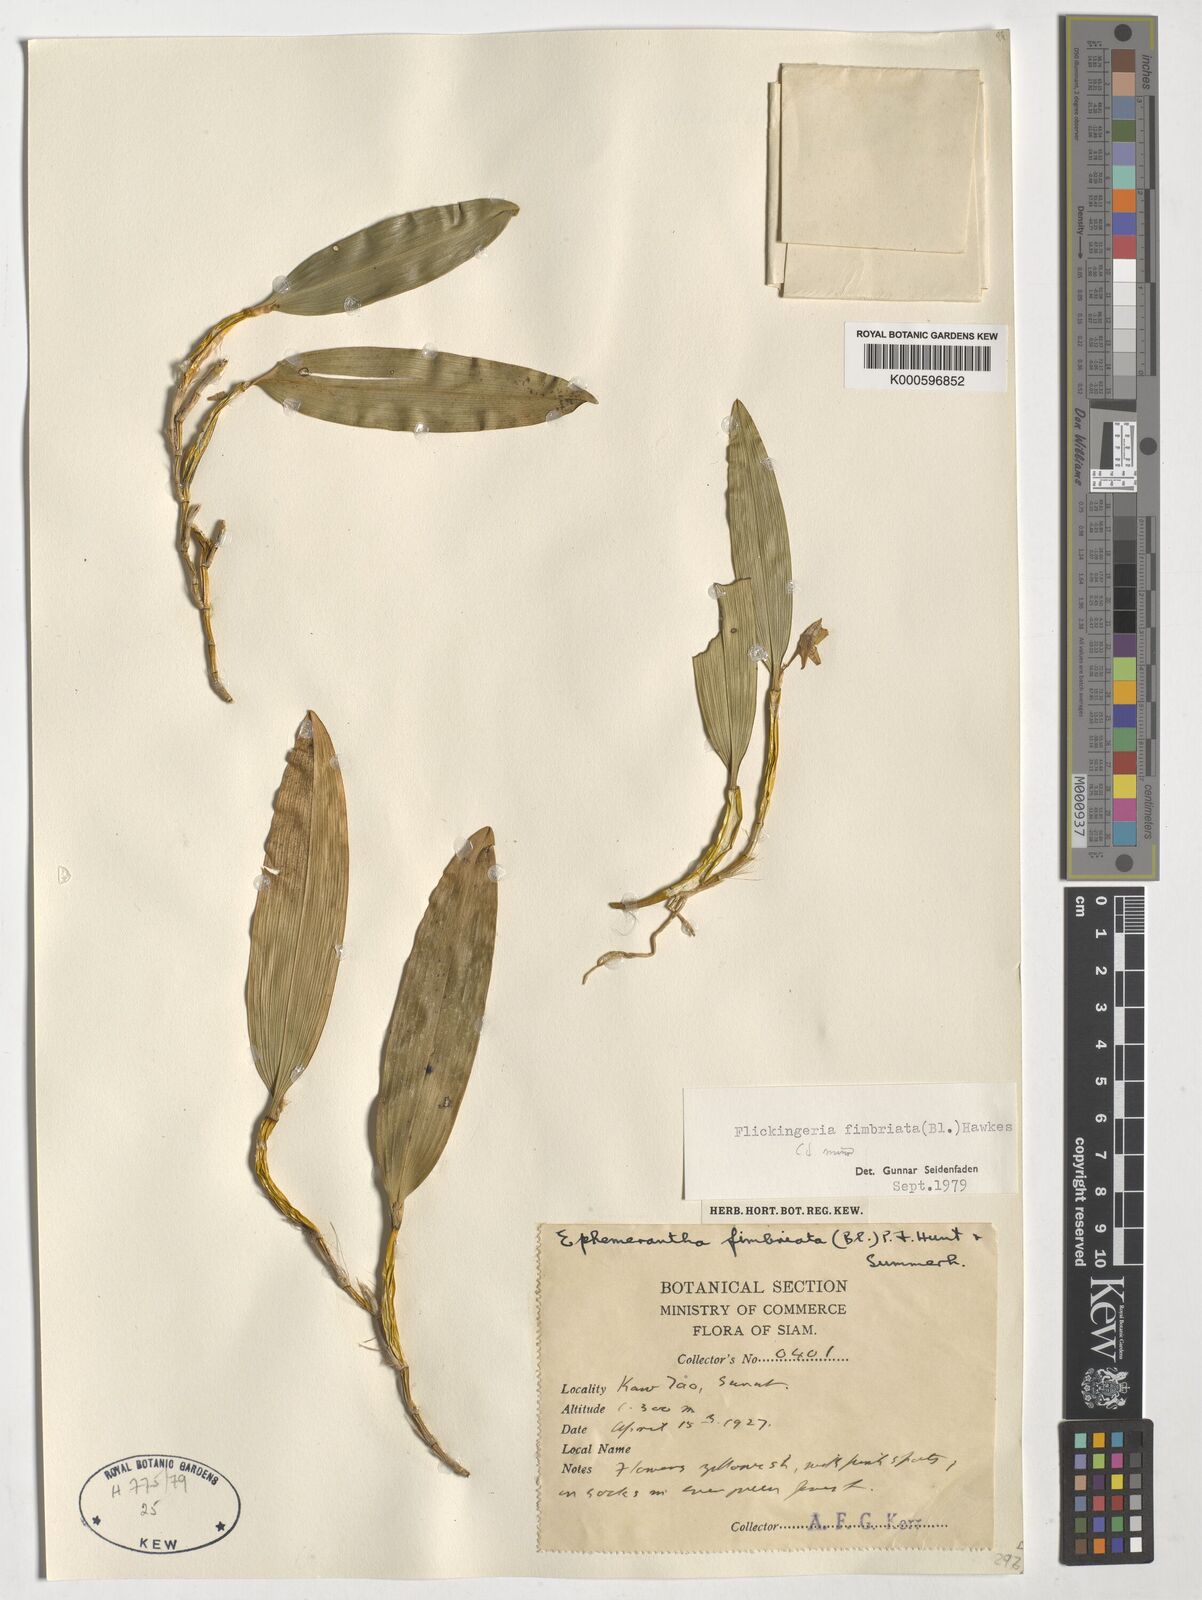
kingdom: Plantae
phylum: Tracheophyta
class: Liliopsida
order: Asparagales
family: Orchidaceae
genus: Dendrobium
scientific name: Dendrobium plicatile
